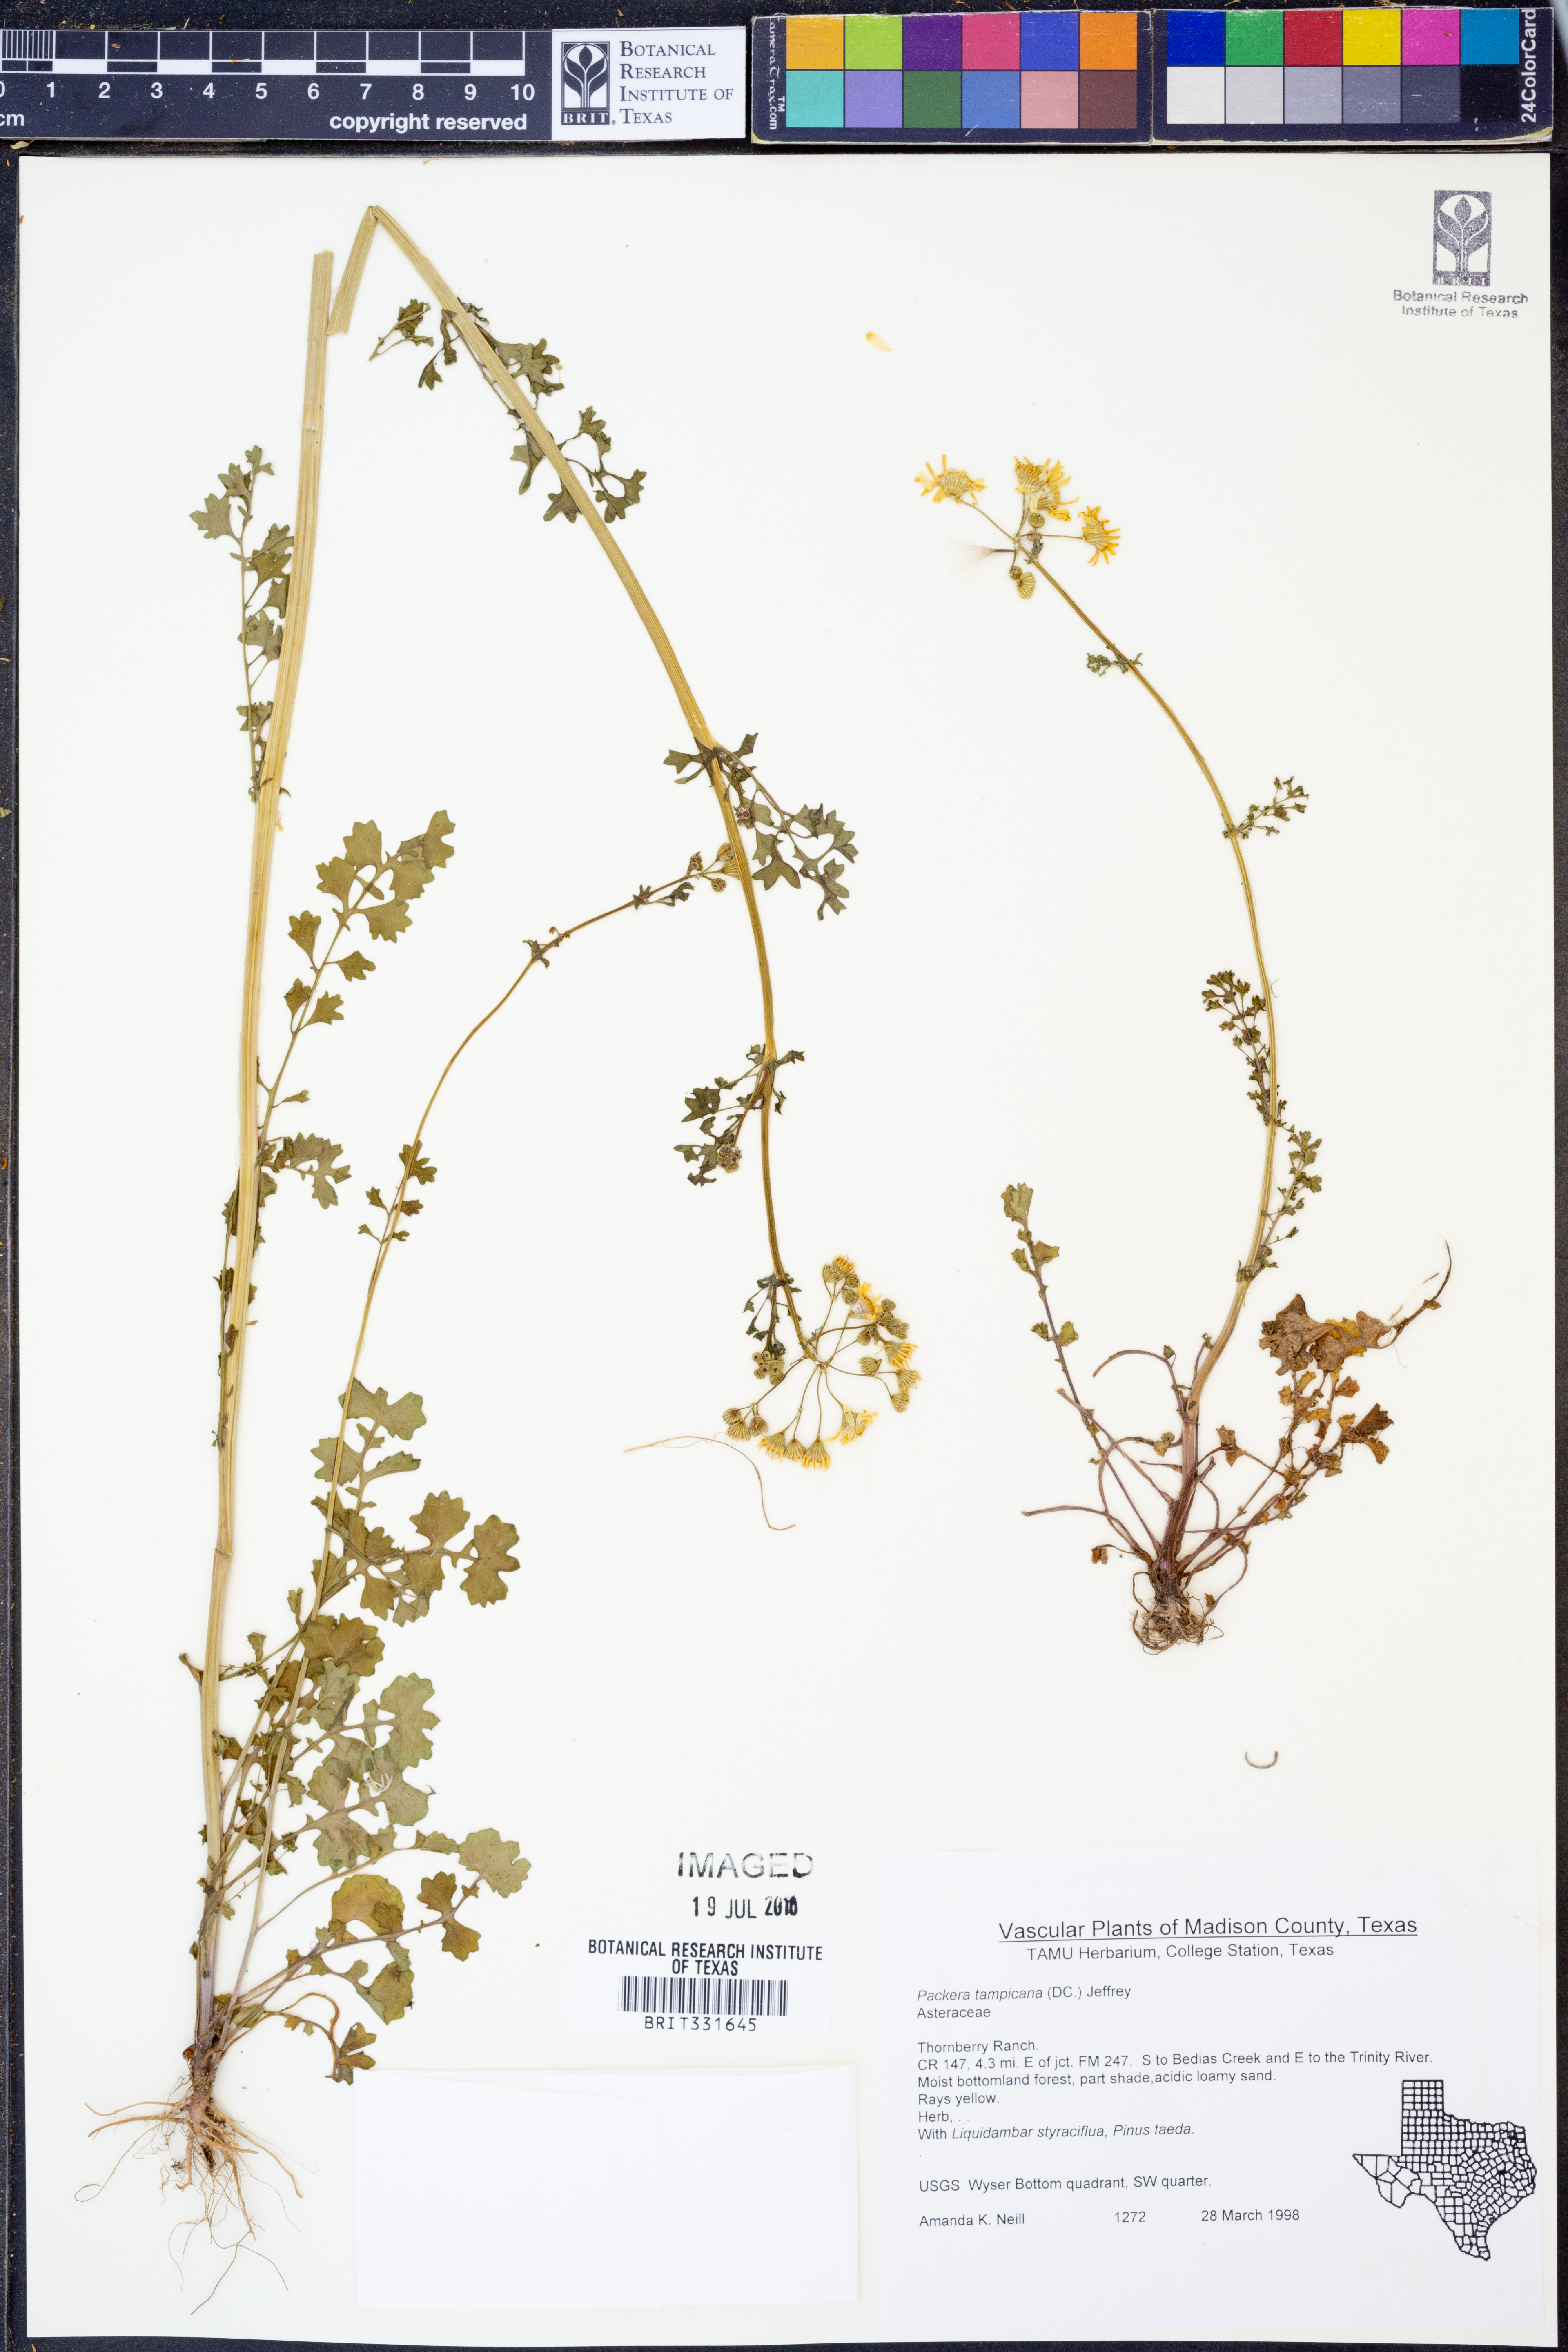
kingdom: Plantae
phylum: Tracheophyta
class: Magnoliopsida
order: Asterales
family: Asteraceae
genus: Packera
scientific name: Packera tampicana
